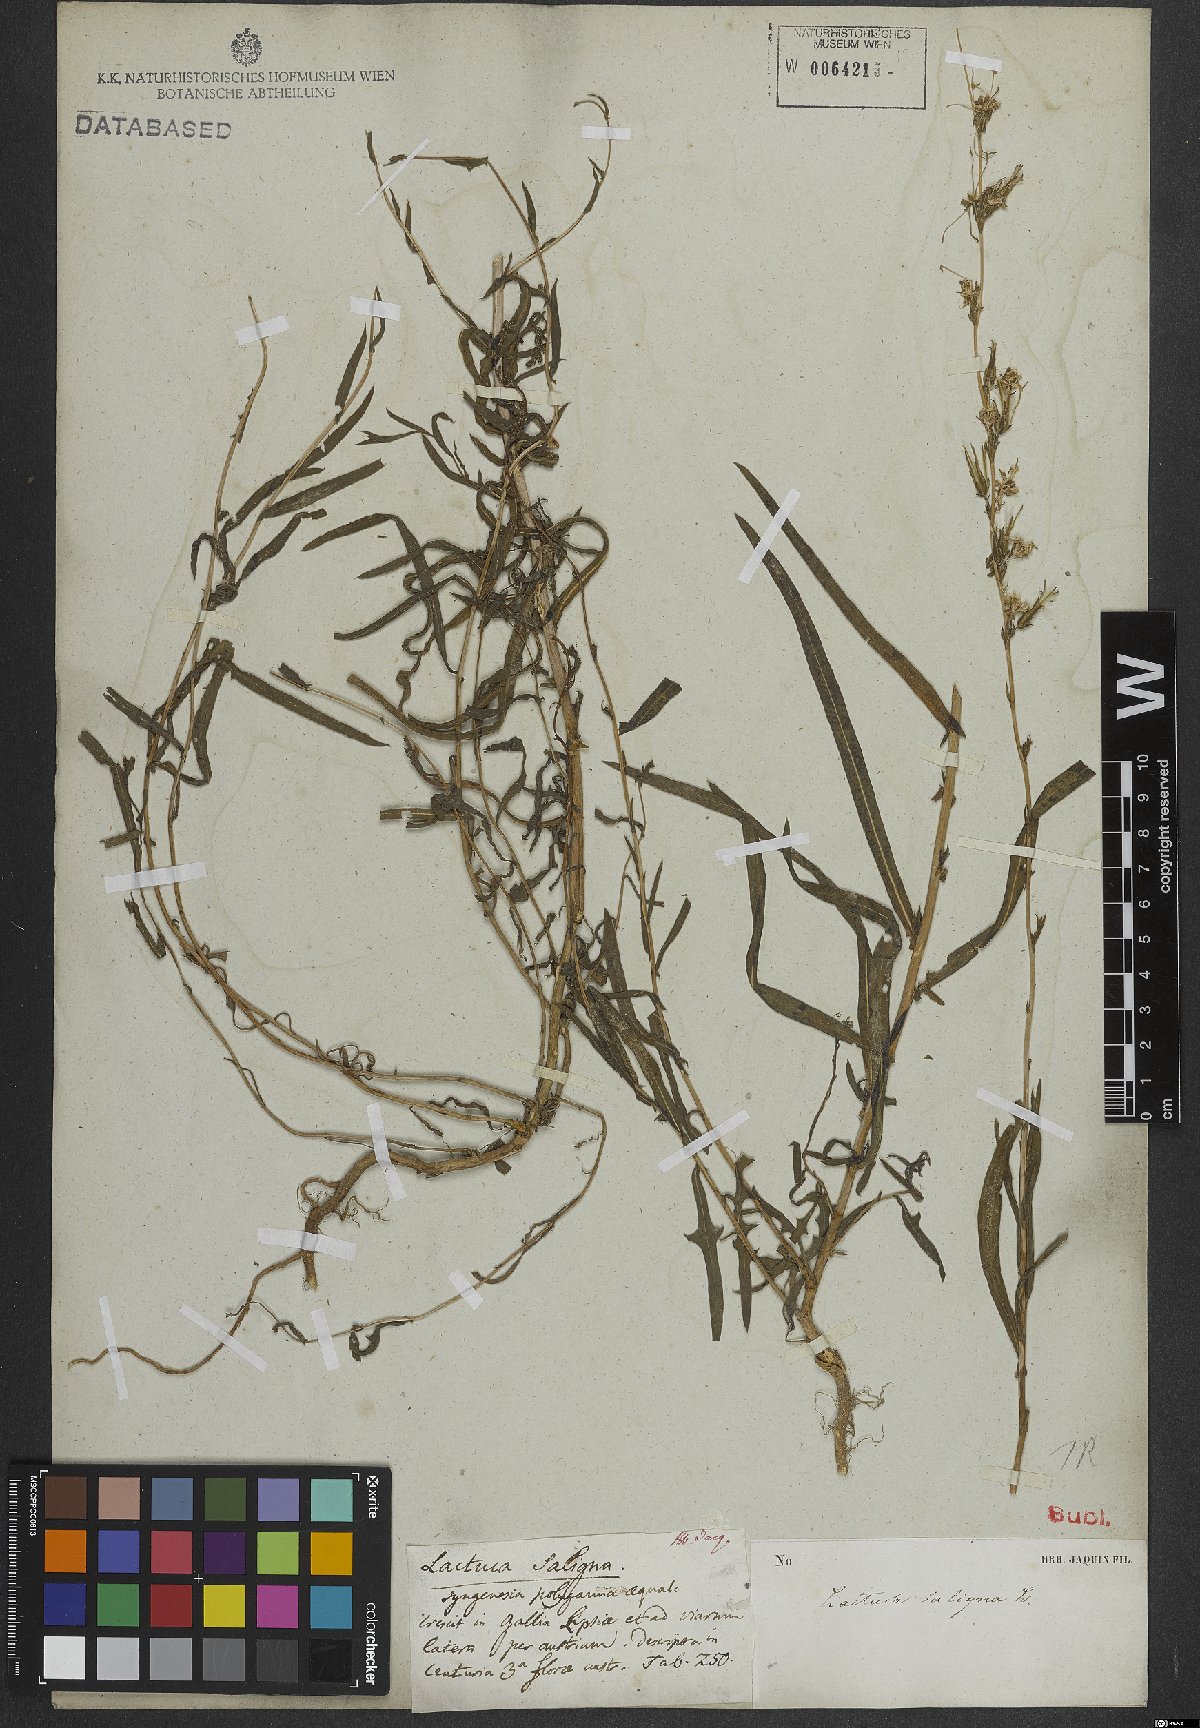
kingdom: Plantae
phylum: Tracheophyta
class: Magnoliopsida
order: Asterales
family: Asteraceae
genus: Lactuca
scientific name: Lactuca saligna
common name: Wild lettuce
